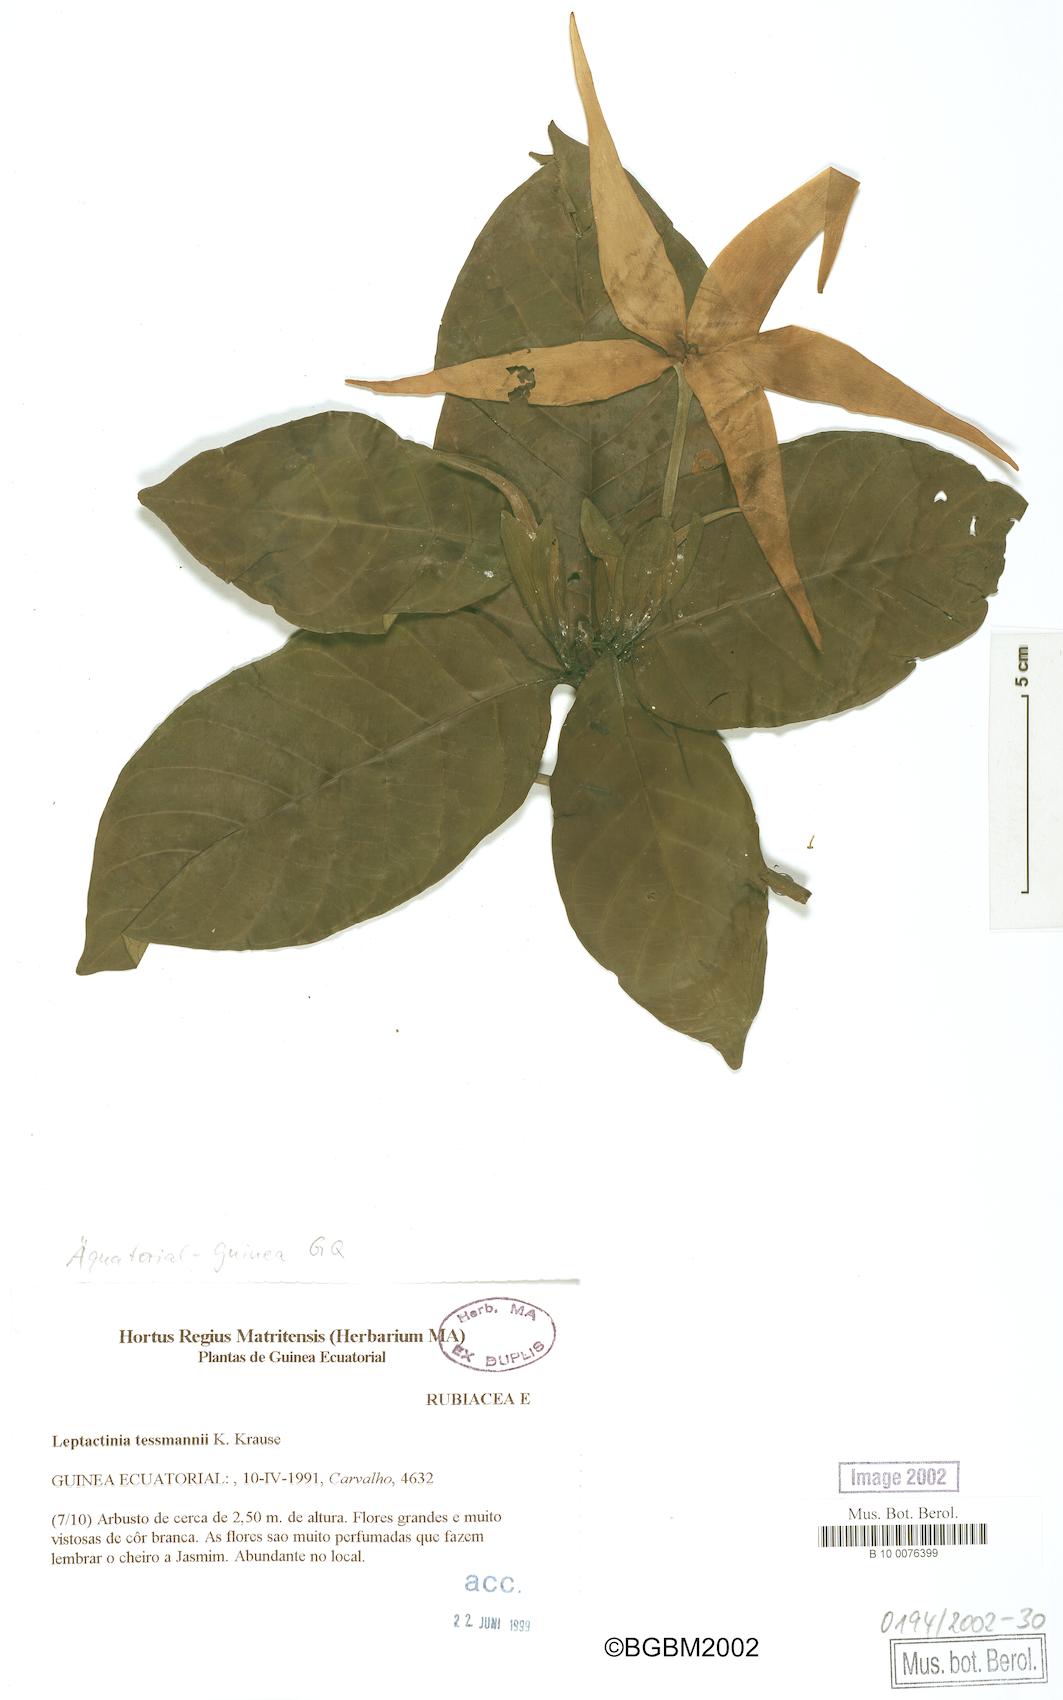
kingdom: Plantae
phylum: Tracheophyta
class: Magnoliopsida
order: Gentianales
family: Rubiaceae
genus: Leptactina
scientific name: Leptactina tessmannii
